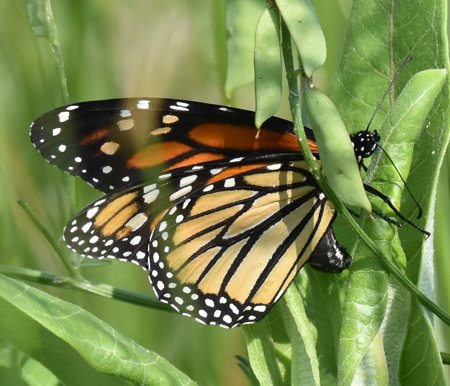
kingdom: Animalia
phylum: Arthropoda
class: Insecta
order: Lepidoptera
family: Nymphalidae
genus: Danaus
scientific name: Danaus plexippus
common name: Monarch
